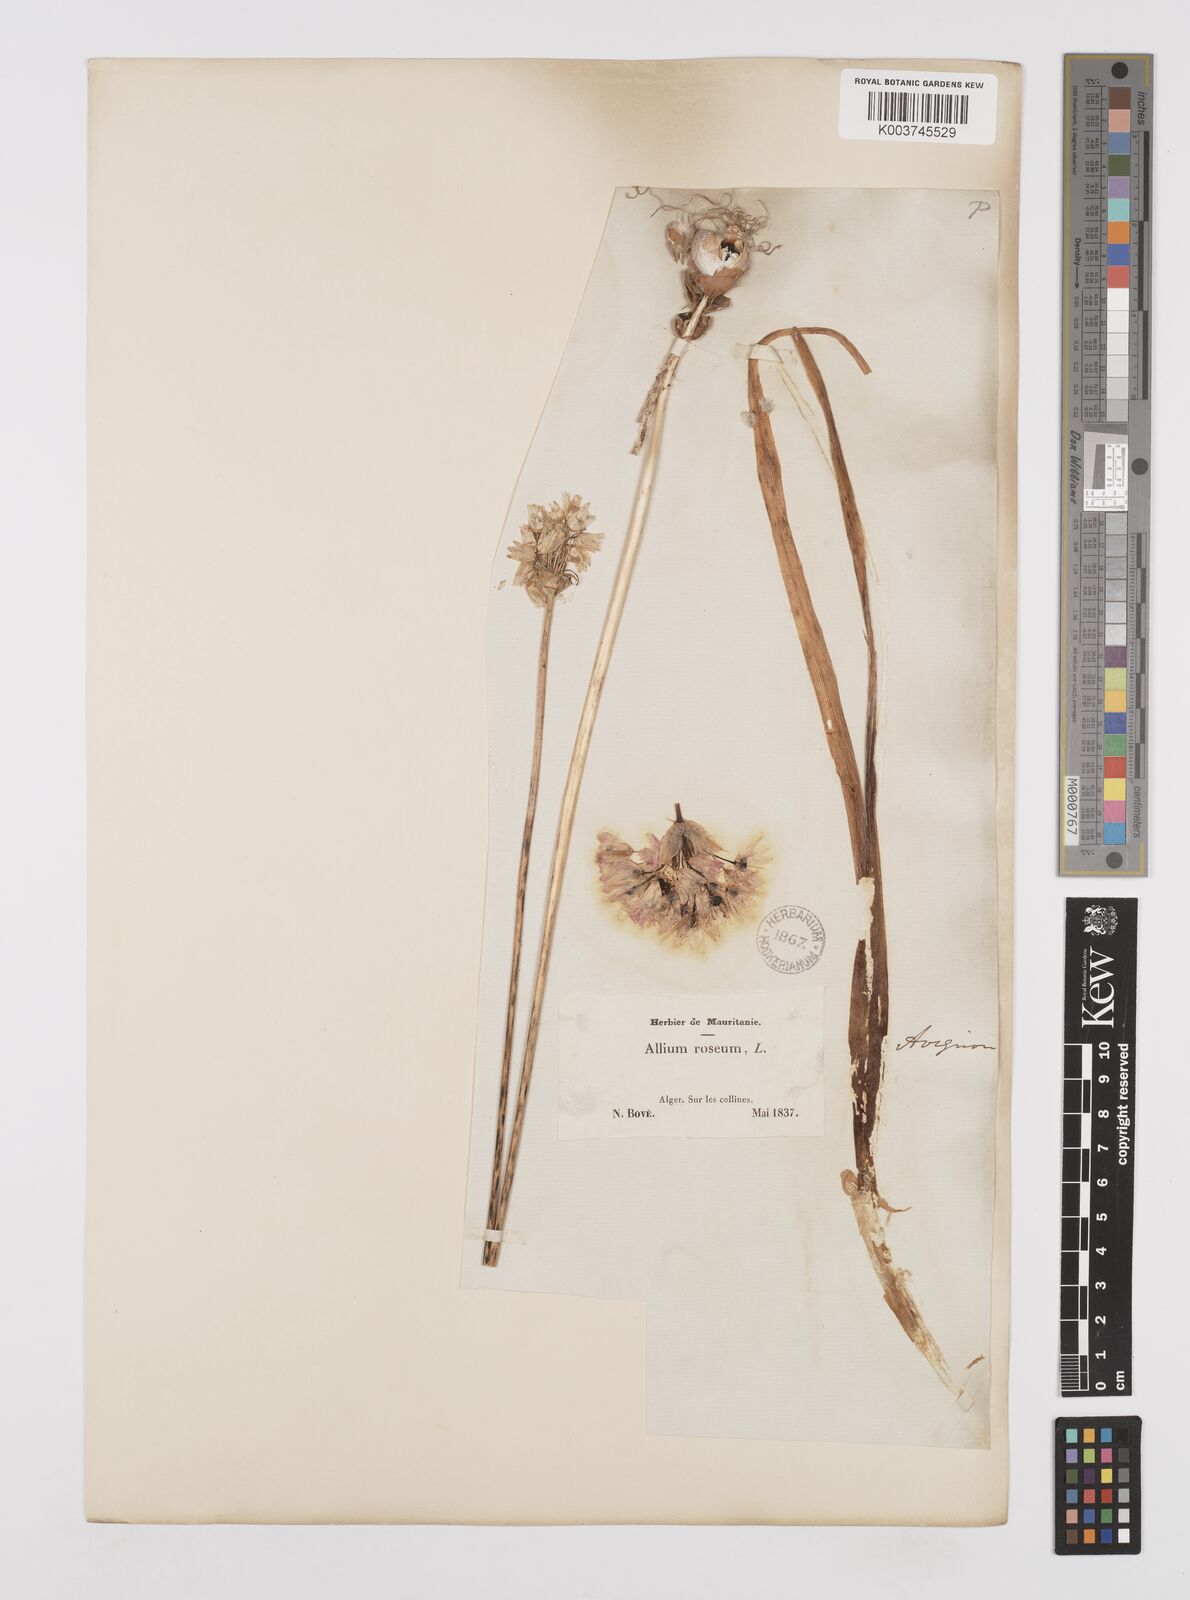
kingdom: Plantae
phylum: Tracheophyta
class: Liliopsida
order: Asparagales
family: Amaryllidaceae
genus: Allium
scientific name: Allium roseum
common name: Rosy garlic
